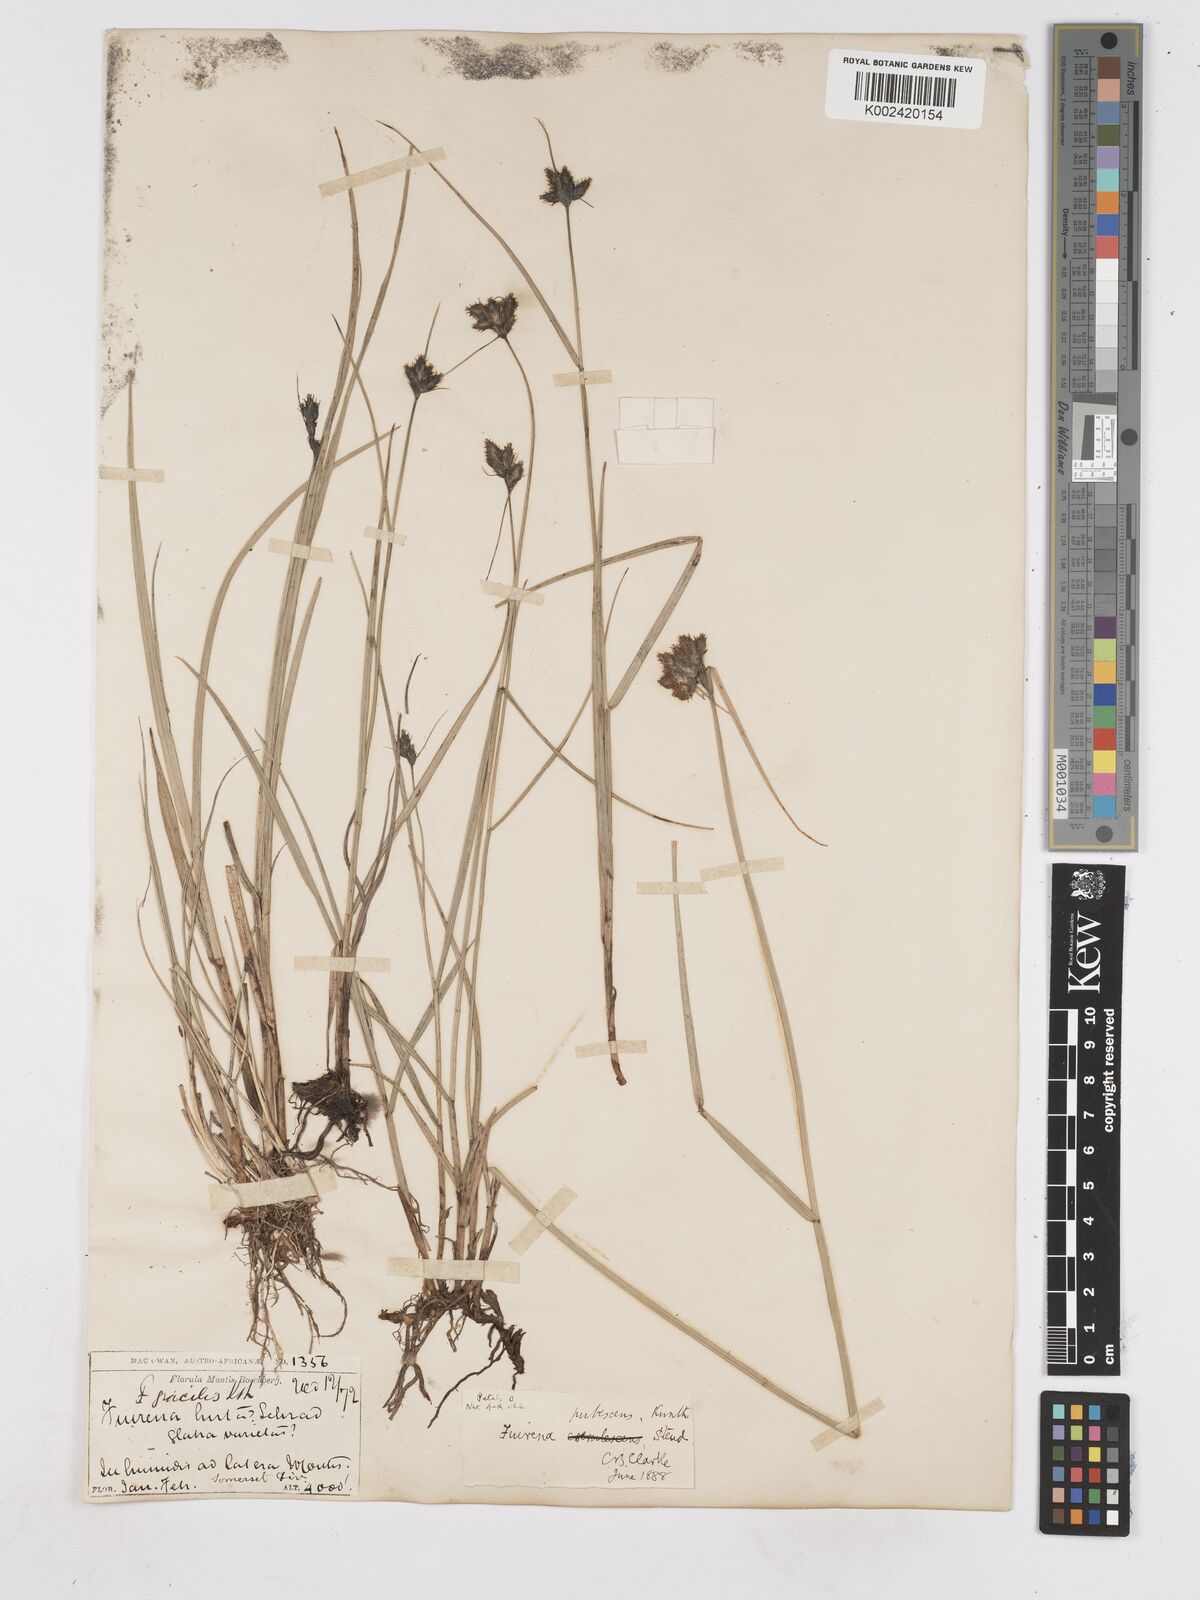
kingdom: Plantae
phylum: Tracheophyta
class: Liliopsida
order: Poales
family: Cyperaceae
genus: Fuirena
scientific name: Fuirena pubescens
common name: Hairy sedge
